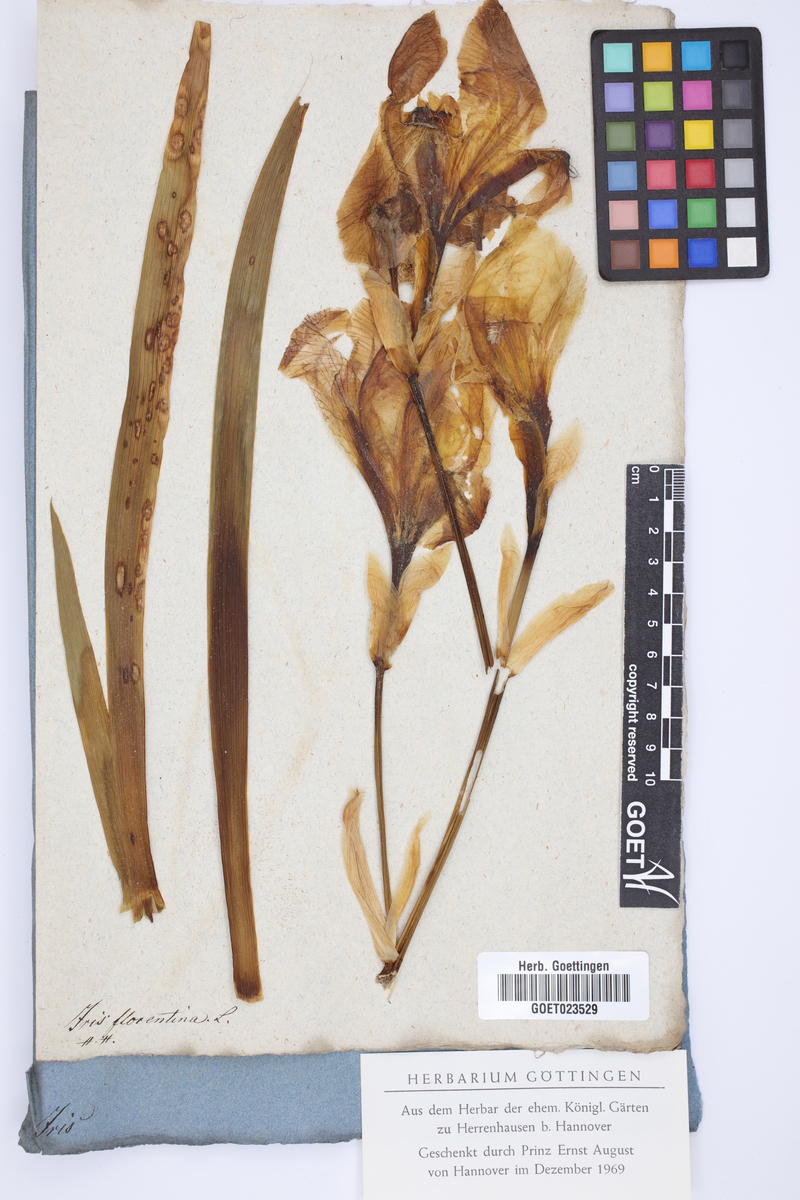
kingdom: Plantae
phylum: Tracheophyta
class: Liliopsida
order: Asparagales
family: Iridaceae
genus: Iris
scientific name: Iris florentina
